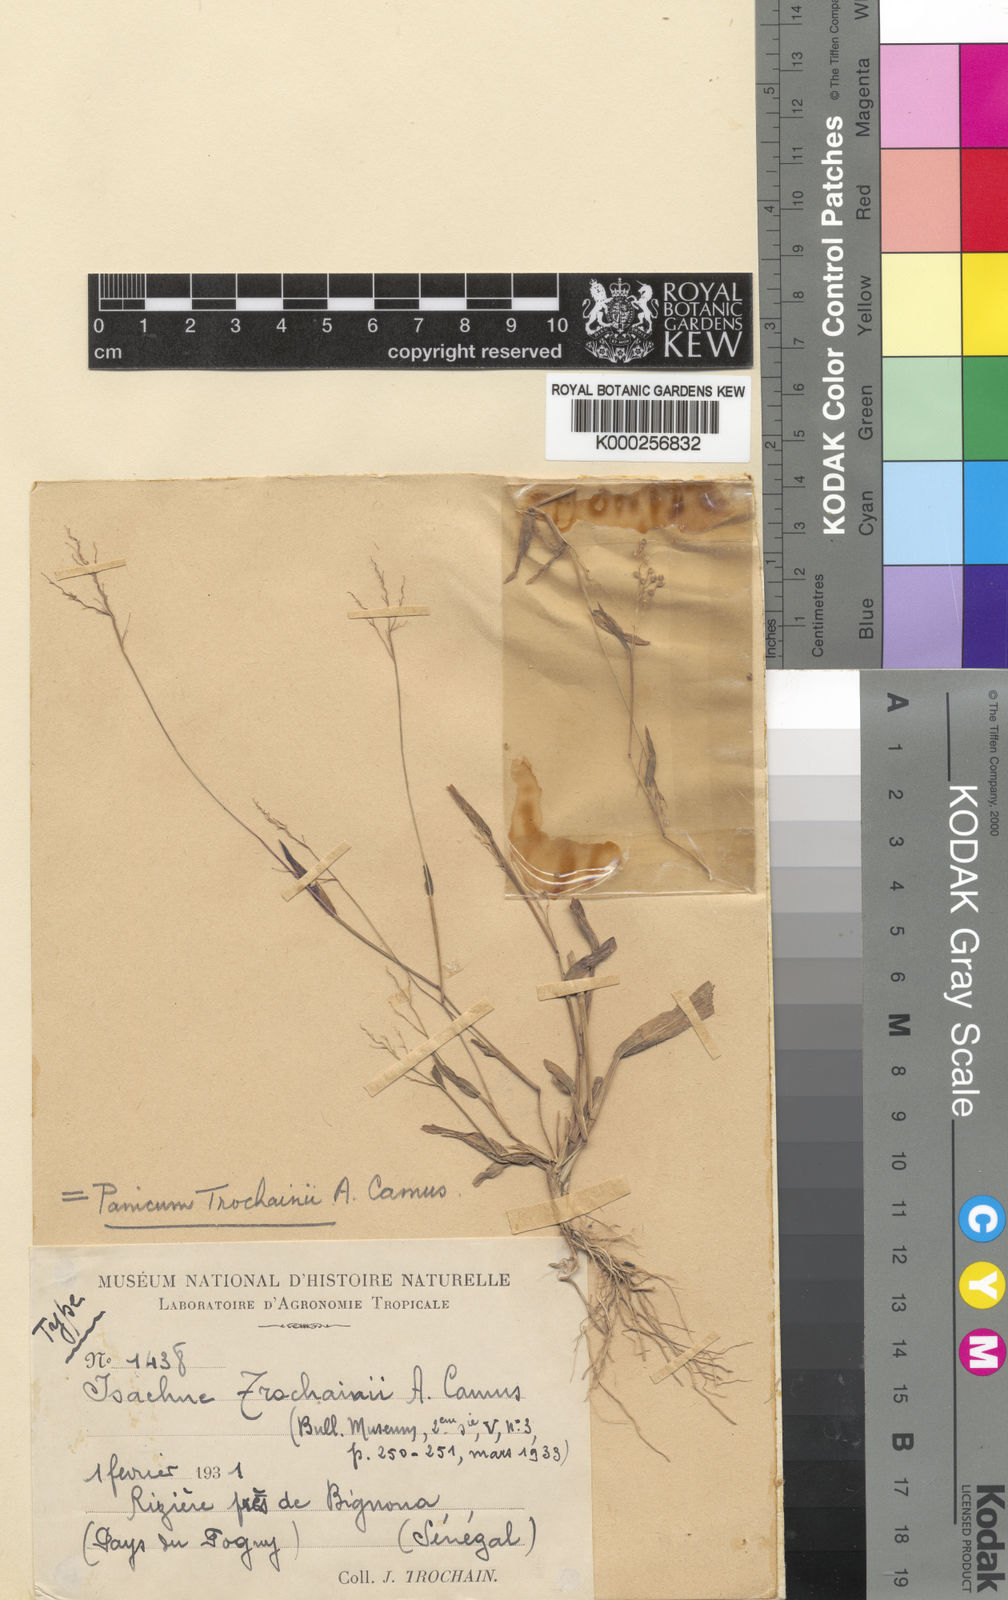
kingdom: Plantae
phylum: Tracheophyta
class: Liliopsida
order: Poales
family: Poaceae
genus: Panicum
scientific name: Panicum curviflorum
